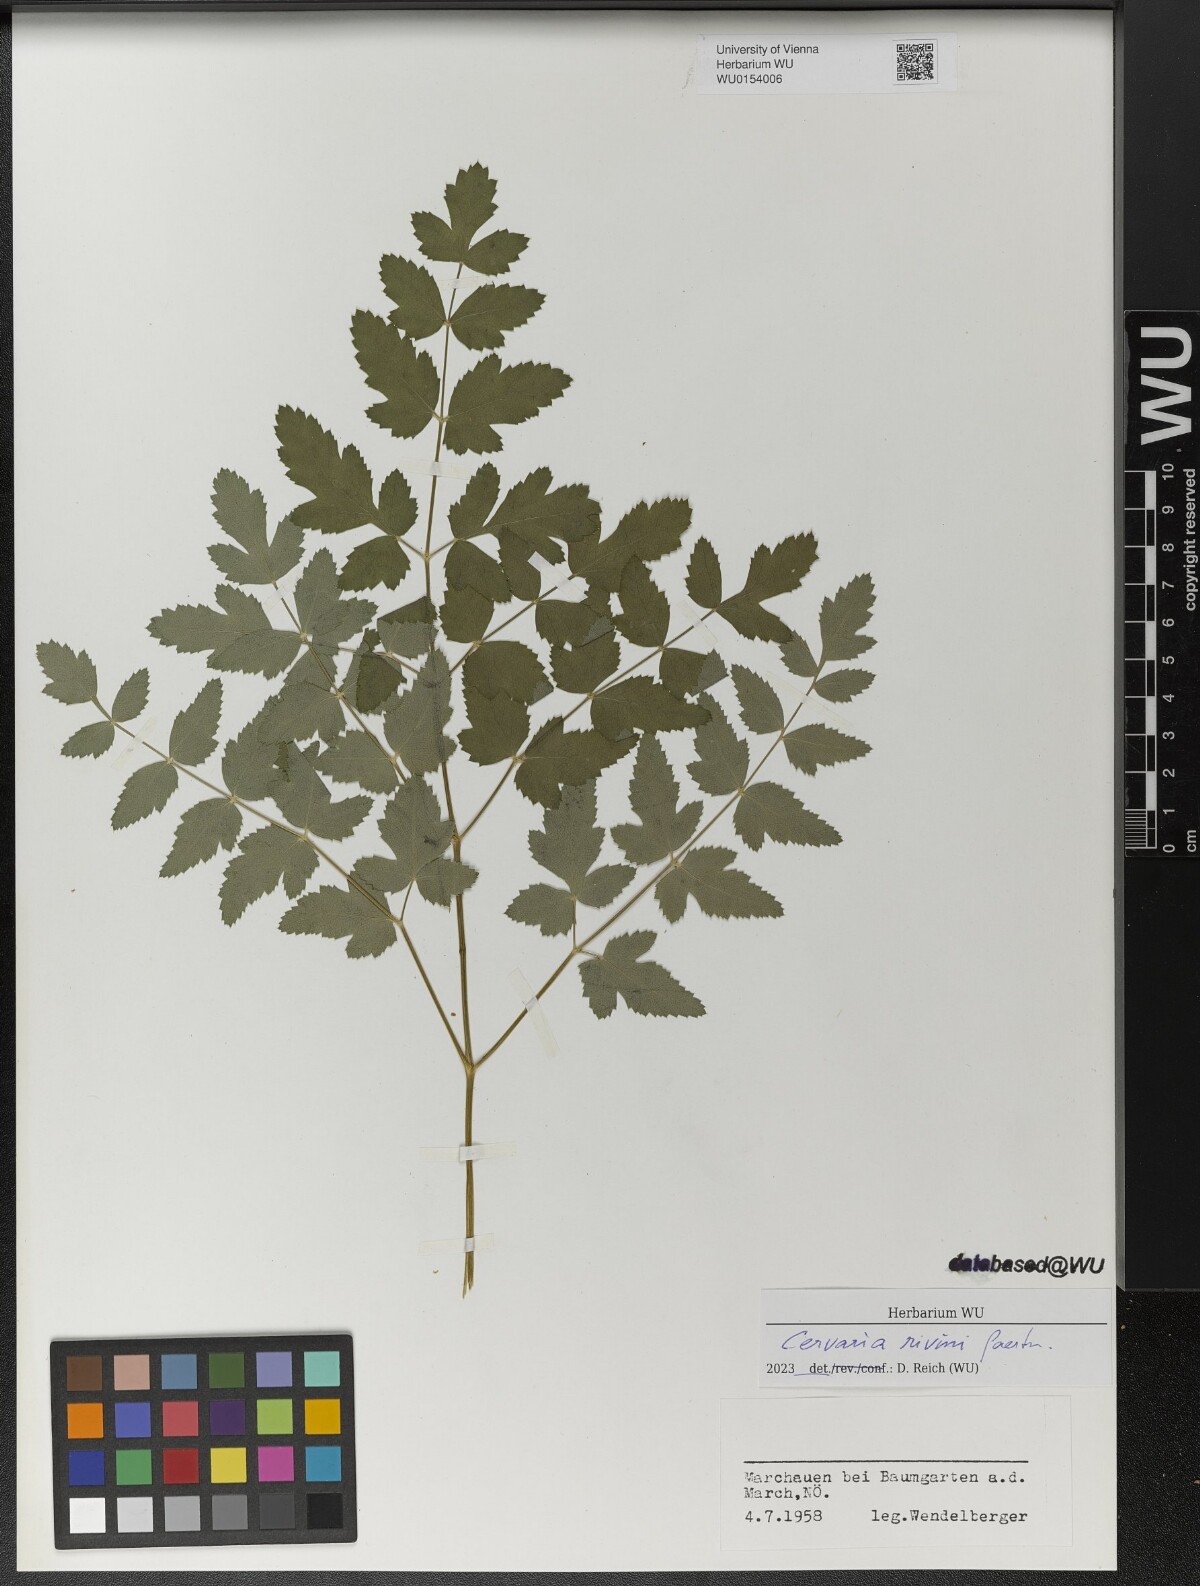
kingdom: Plantae
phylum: Tracheophyta
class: Magnoliopsida
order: Apiales
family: Apiaceae
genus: Cervaria
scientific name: Cervaria rivini
